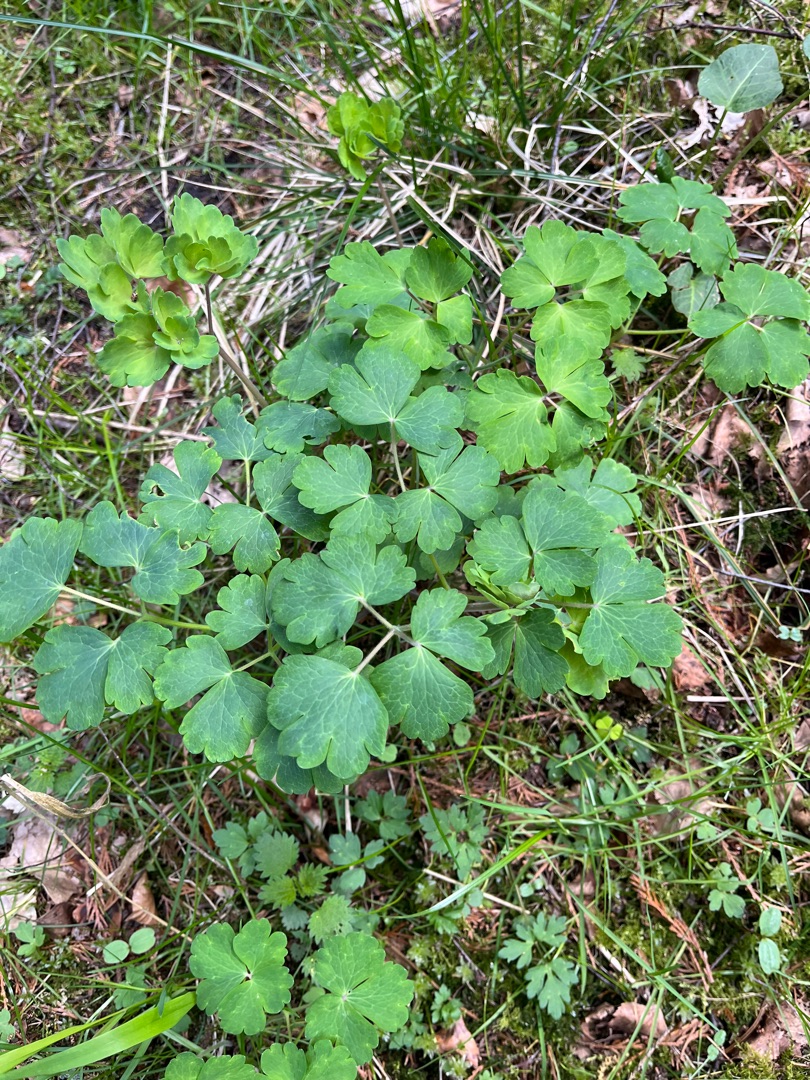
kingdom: Plantae
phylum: Tracheophyta
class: Magnoliopsida
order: Ranunculales
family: Ranunculaceae
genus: Aquilegia
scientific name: Aquilegia vulgaris
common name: Akeleje
